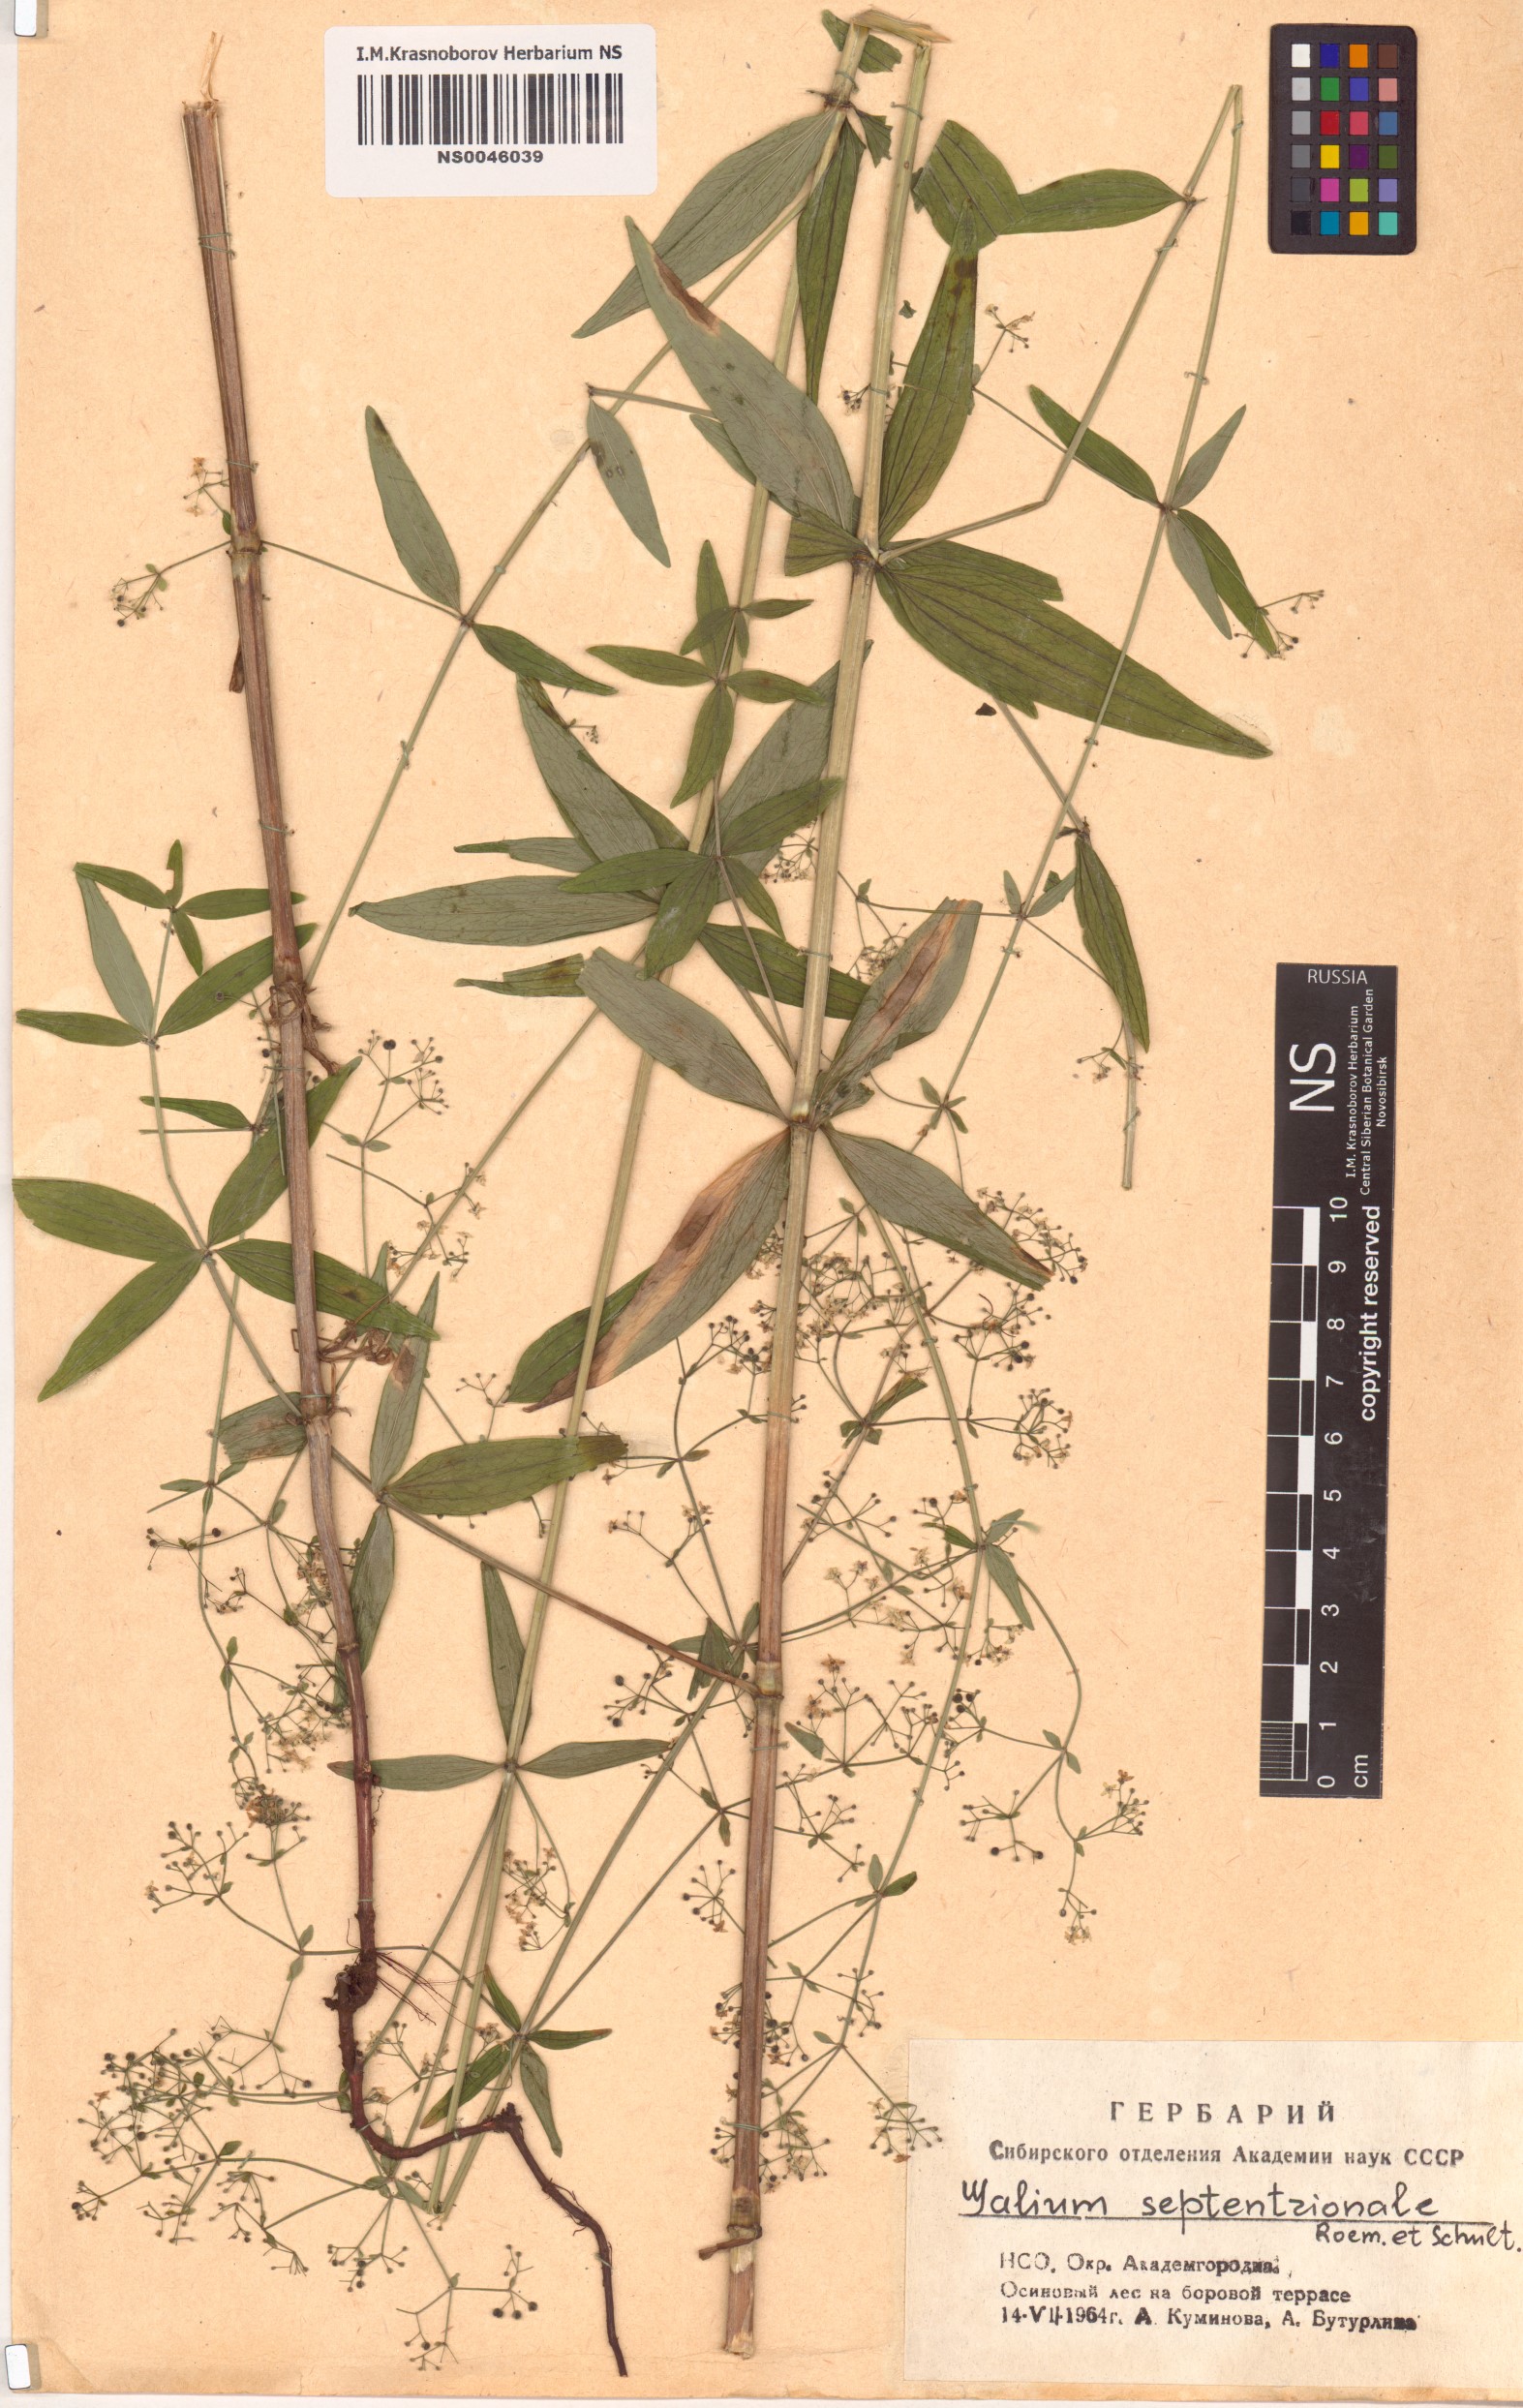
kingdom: Plantae
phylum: Tracheophyta
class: Magnoliopsida
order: Gentianales
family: Rubiaceae
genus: Galium
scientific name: Galium boreale
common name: Northern bedstraw
